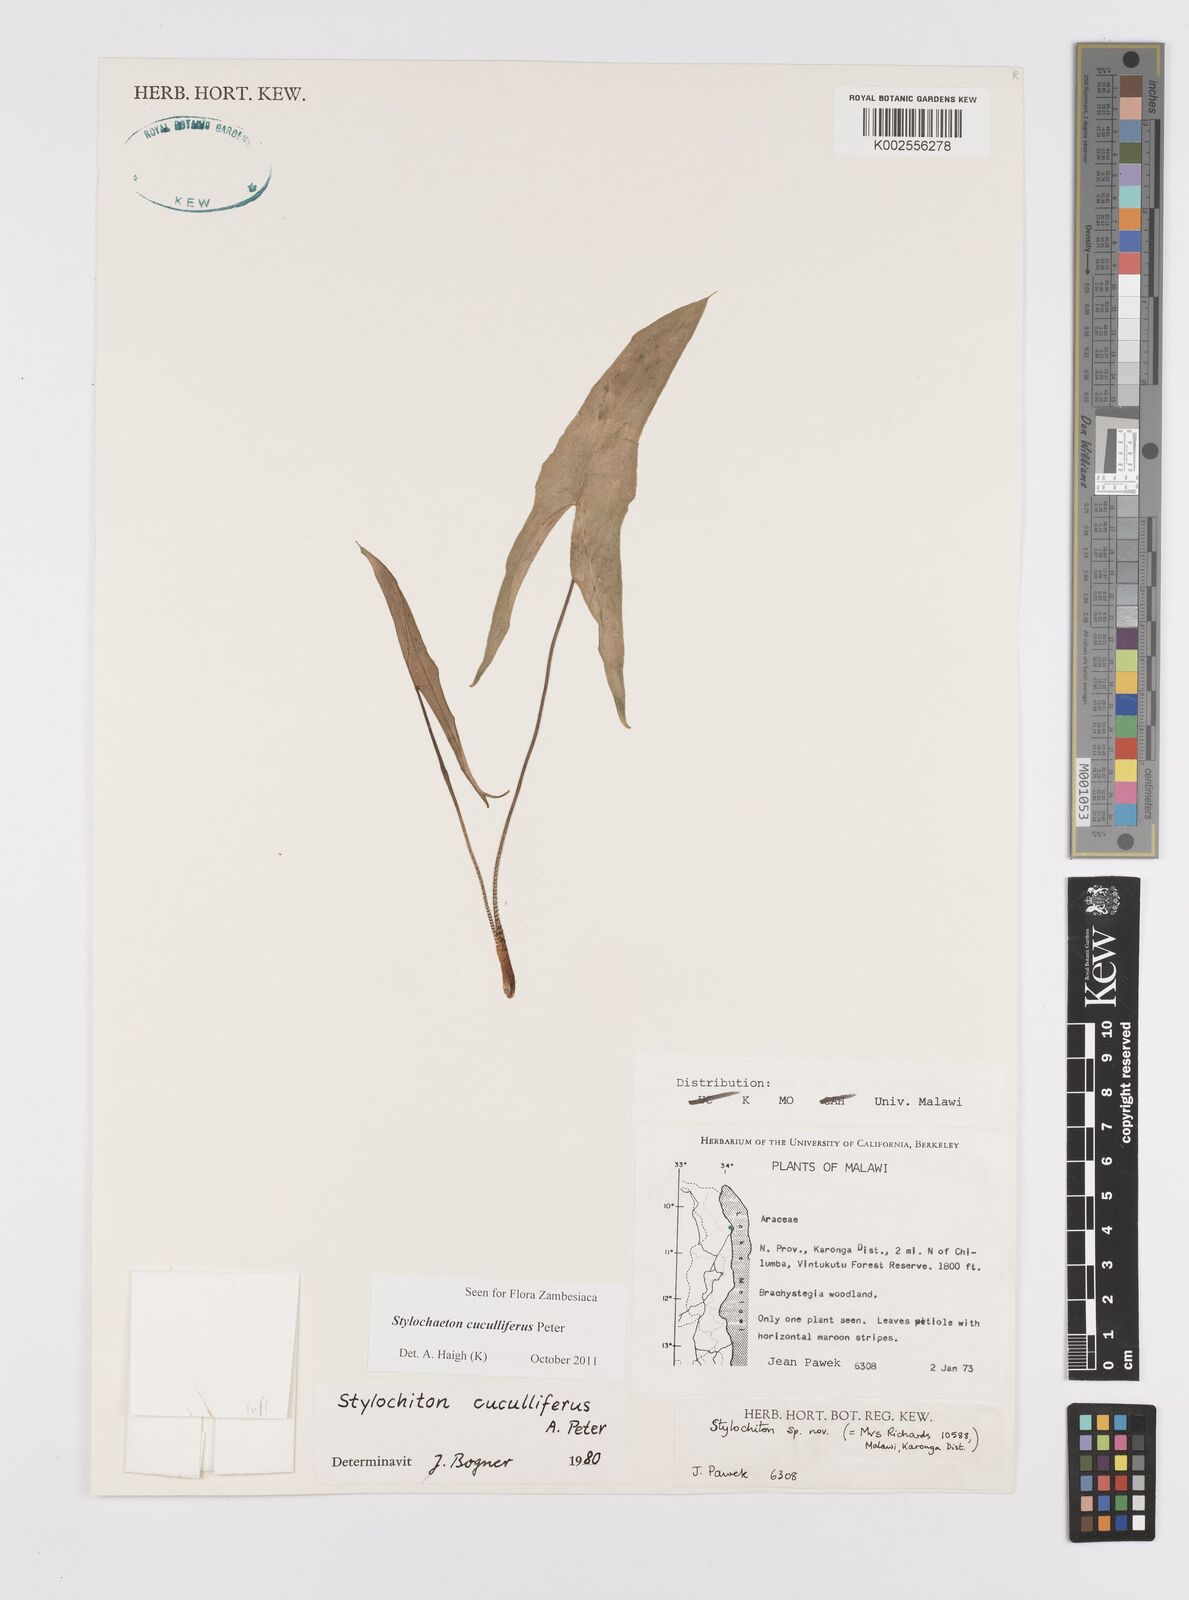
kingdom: Plantae
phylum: Tracheophyta
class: Liliopsida
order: Alismatales
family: Araceae
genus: Stylochaeton
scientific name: Stylochaeton cuculliferum
